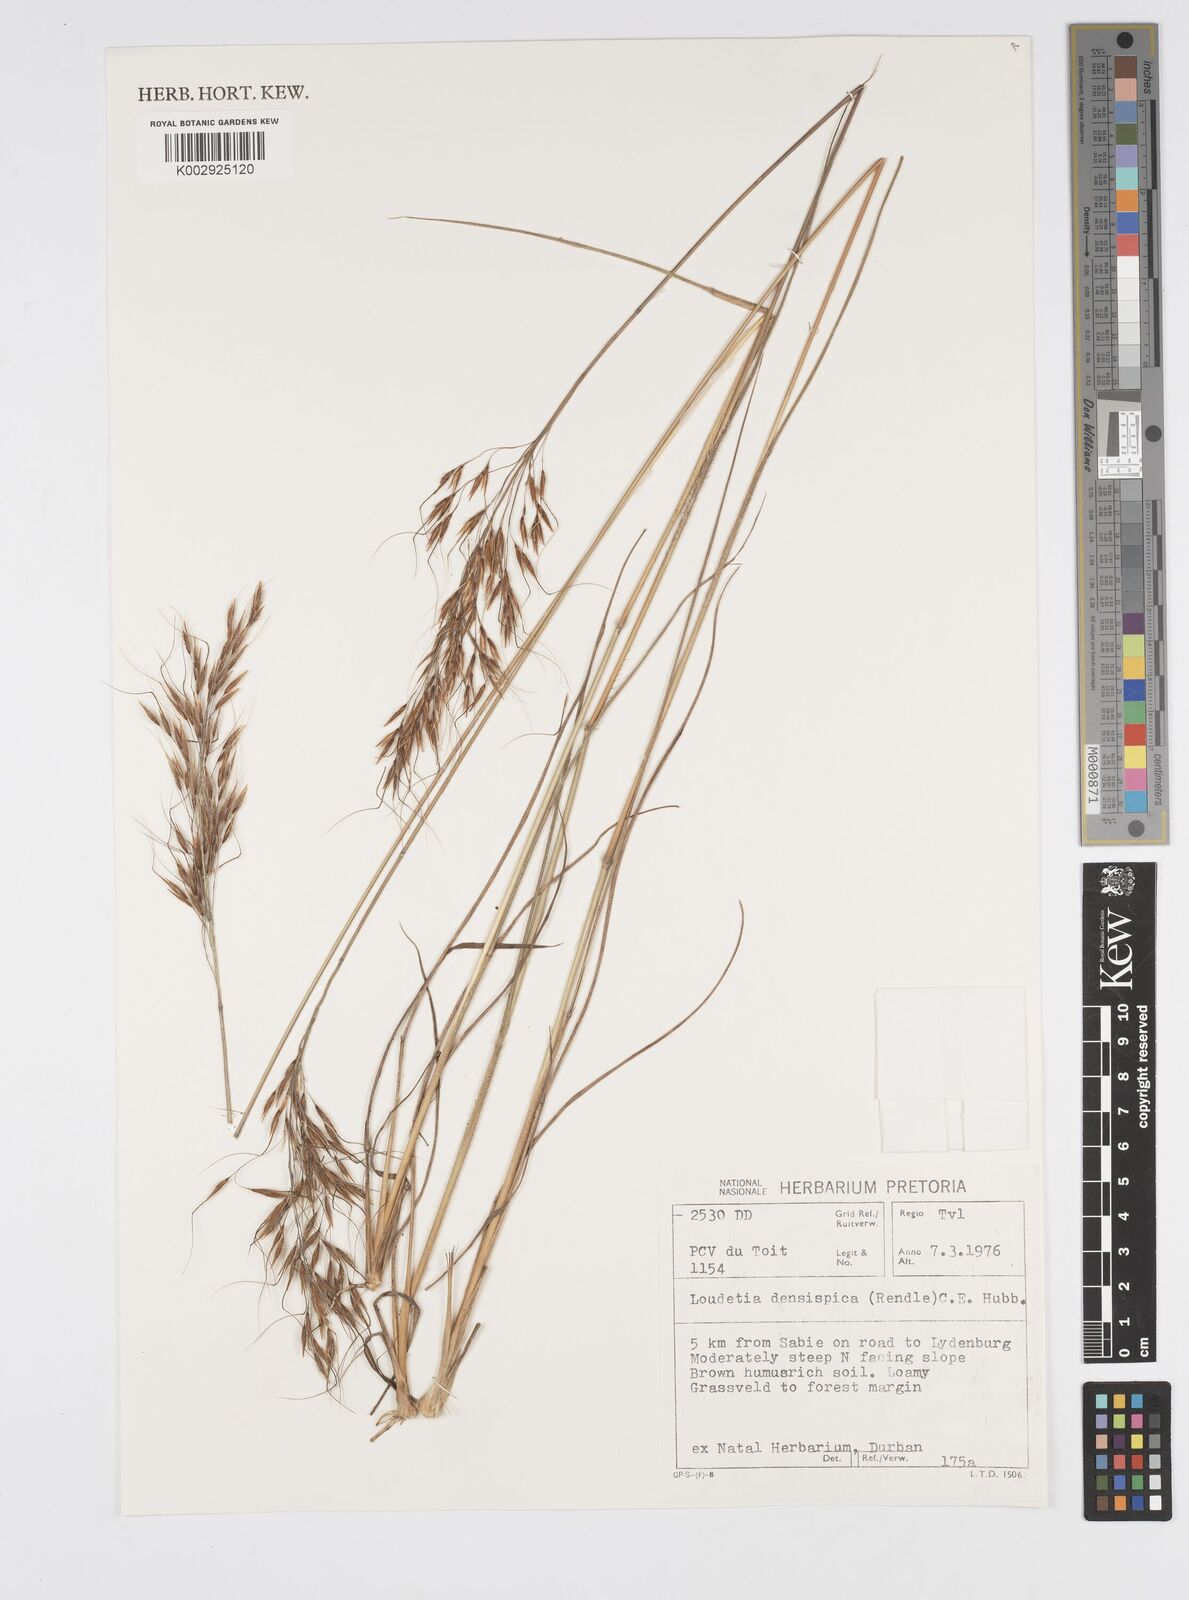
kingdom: Plantae
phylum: Tracheophyta
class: Liliopsida
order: Poales
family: Poaceae
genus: Loudetia
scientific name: Loudetia
